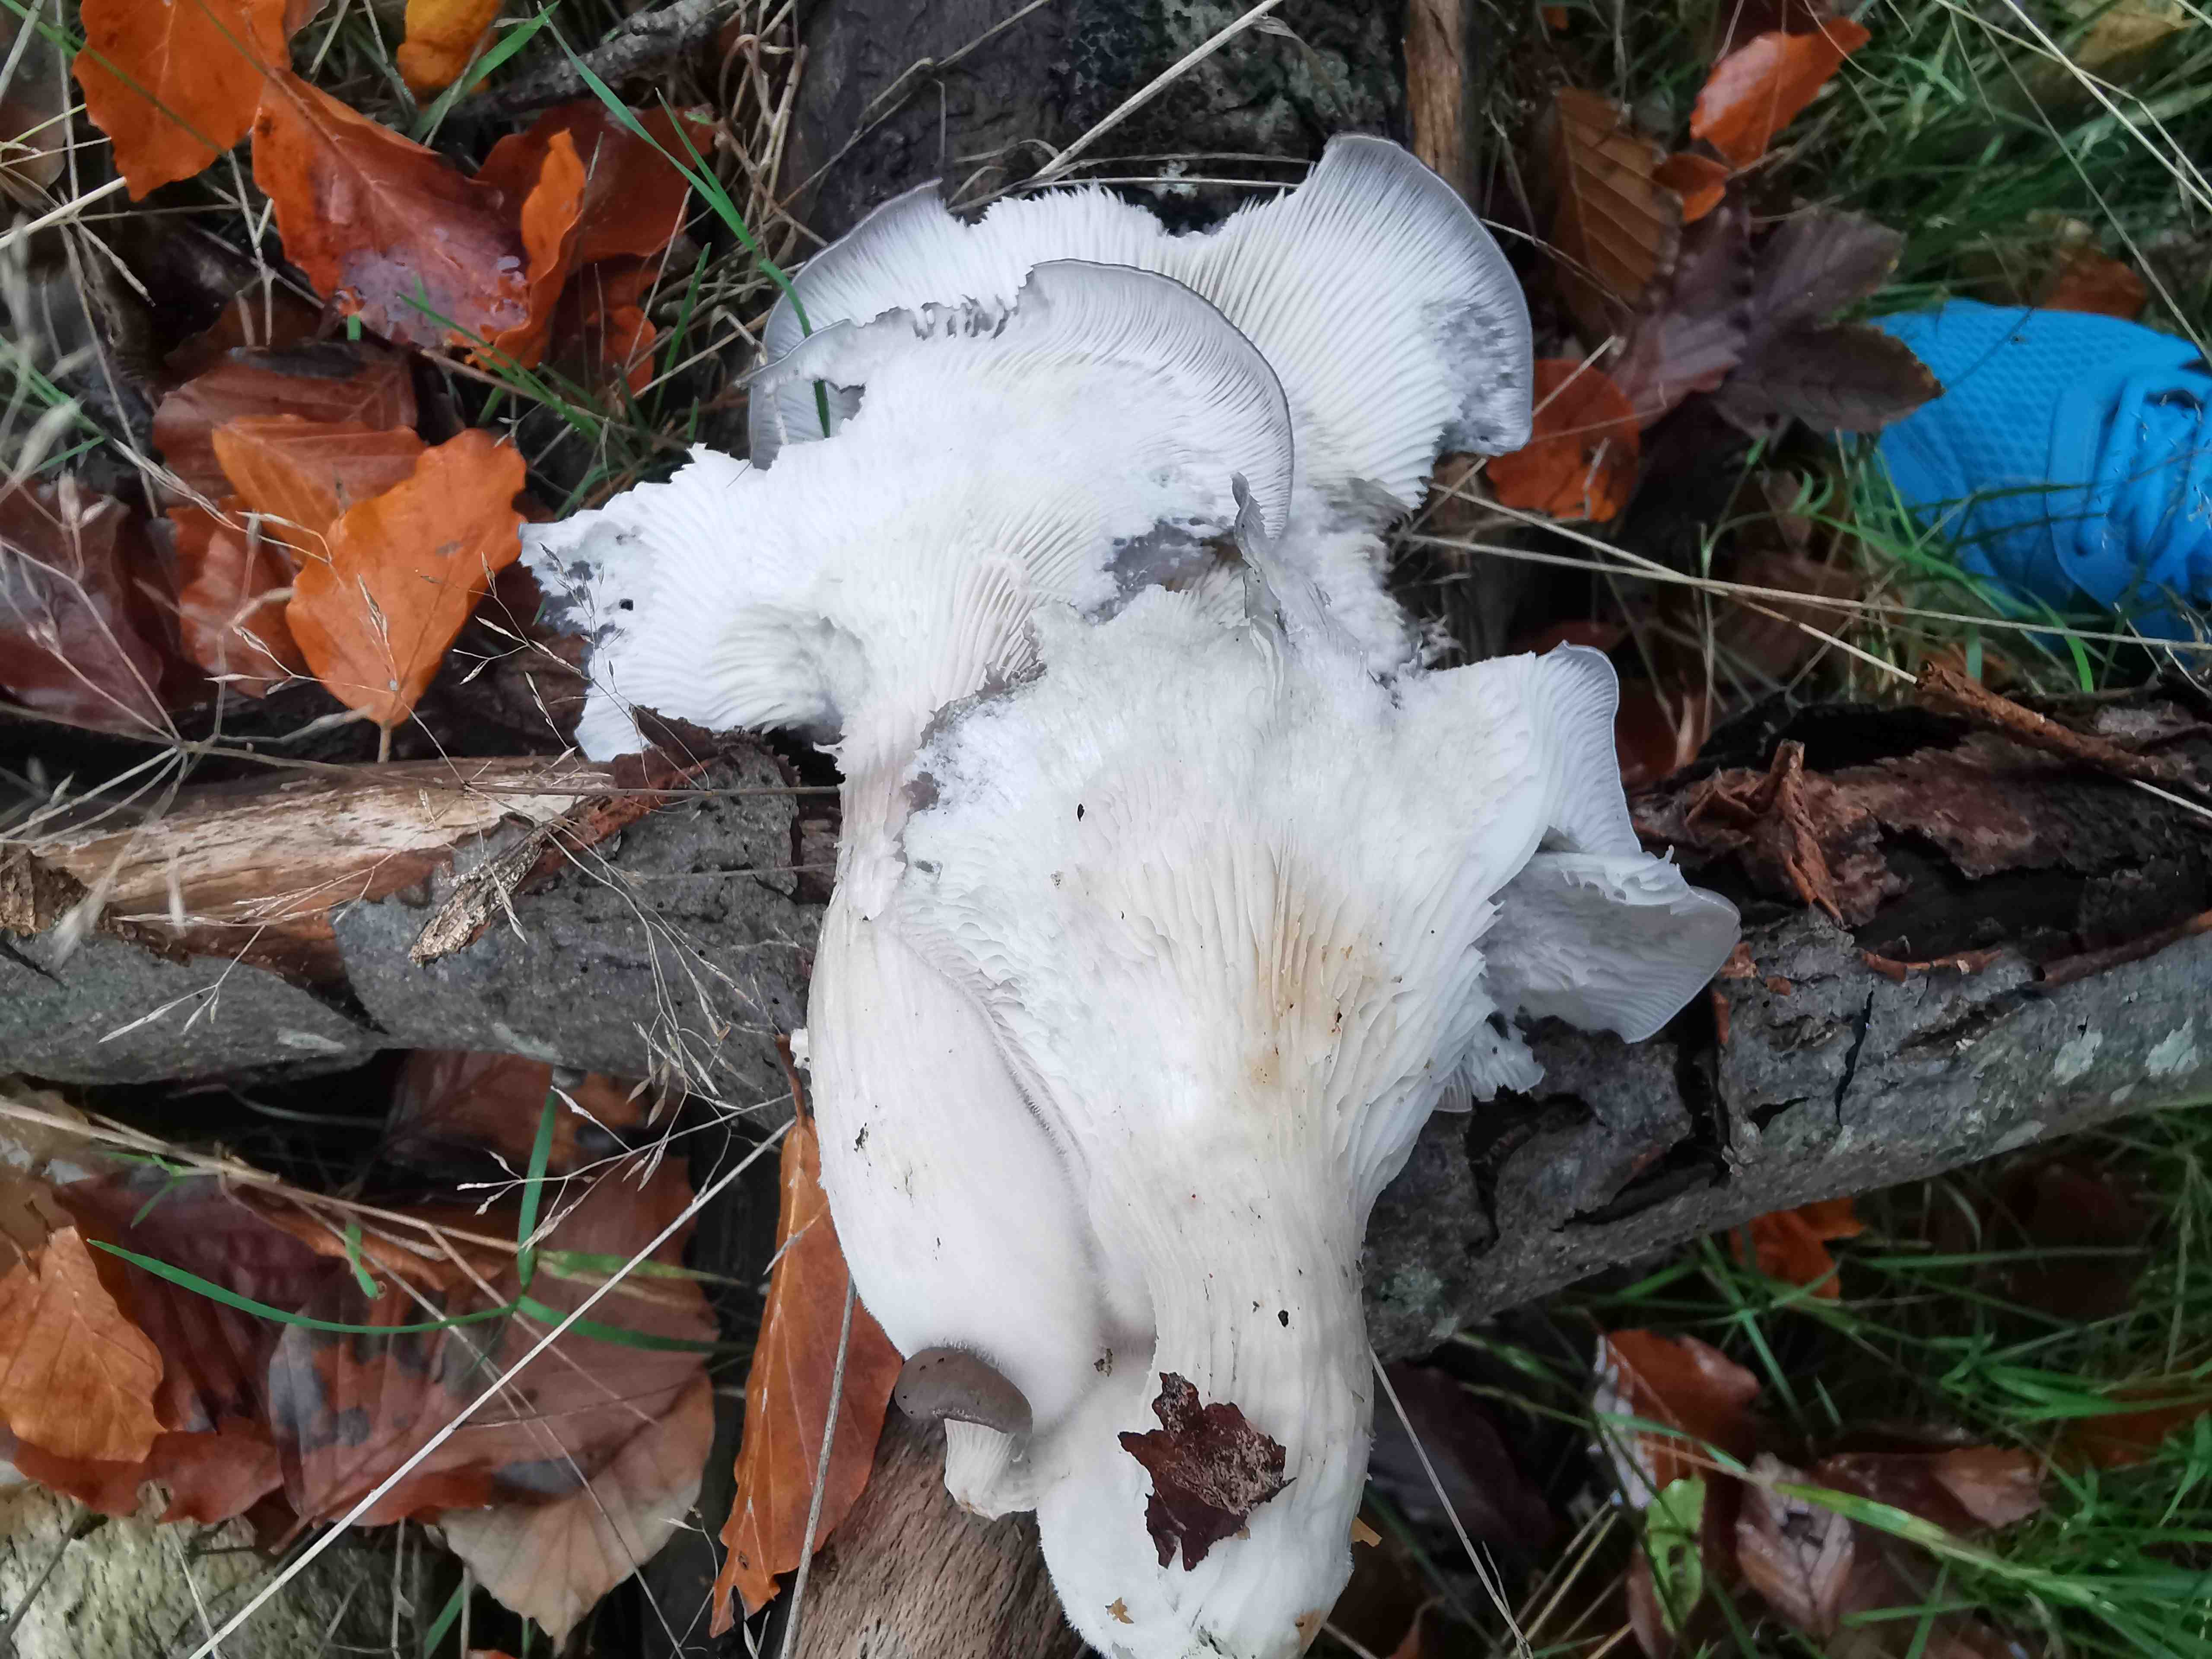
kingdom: Fungi
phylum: Basidiomycota
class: Agaricomycetes
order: Agaricales
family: Pleurotaceae
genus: Pleurotus
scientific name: Pleurotus ostreatus
